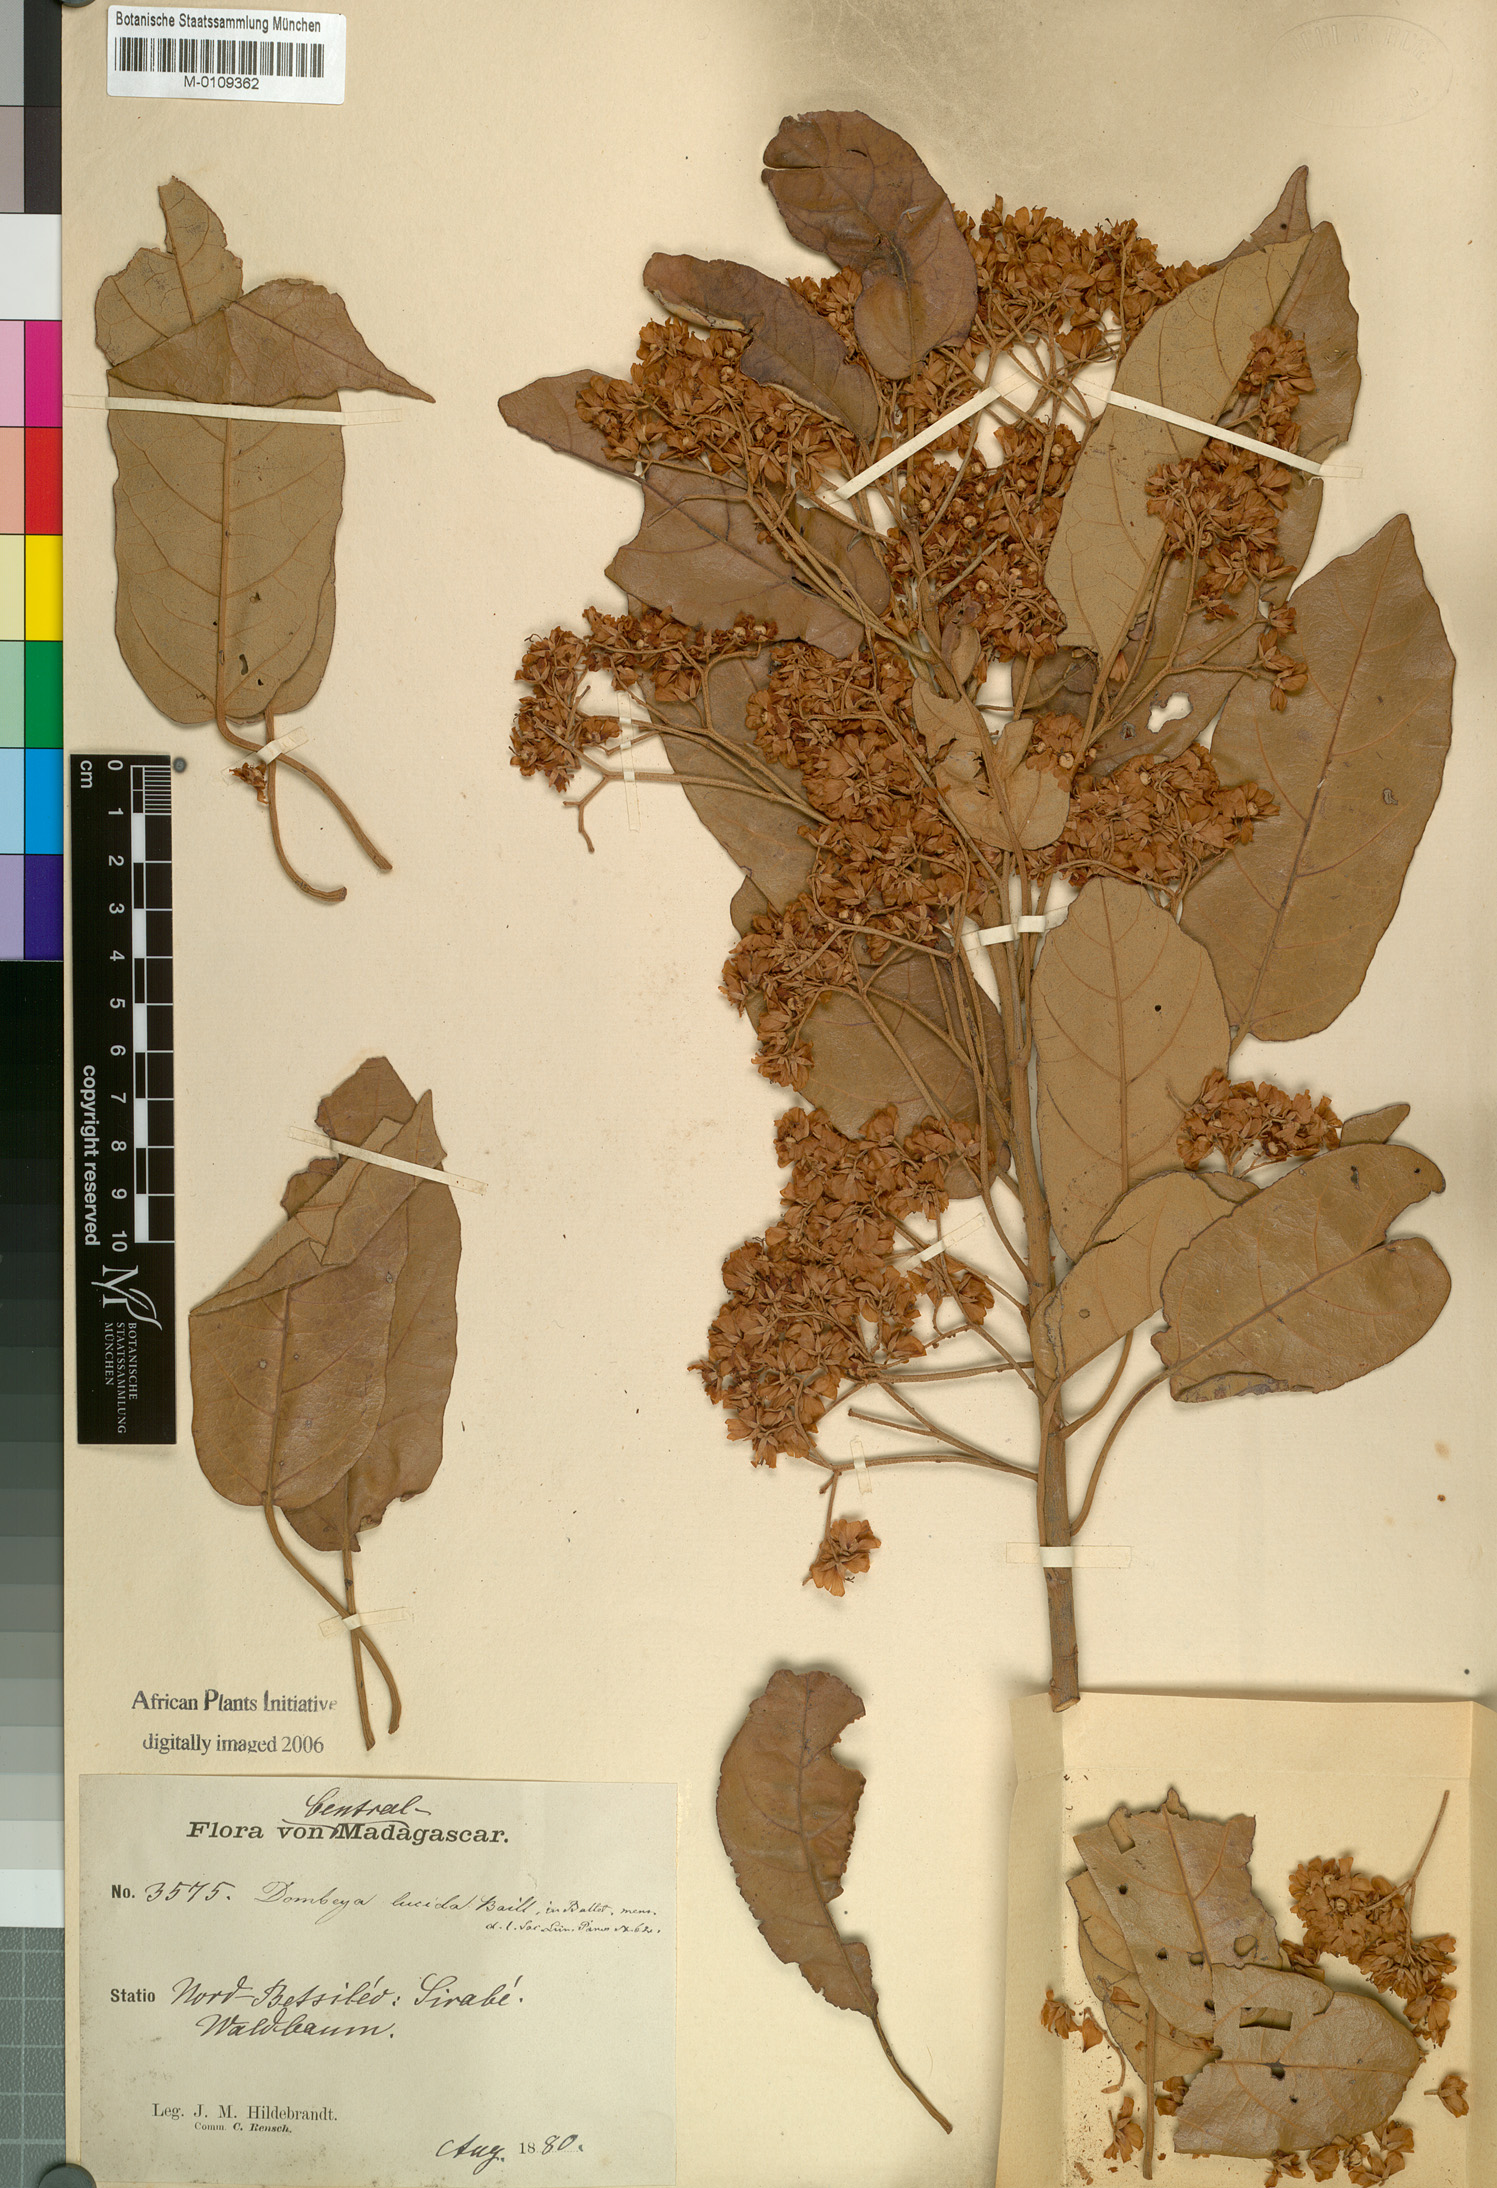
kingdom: Plantae
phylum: Tracheophyta
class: Magnoliopsida
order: Malvales
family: Malvaceae
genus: Dombeya
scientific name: Dombeya lucida
